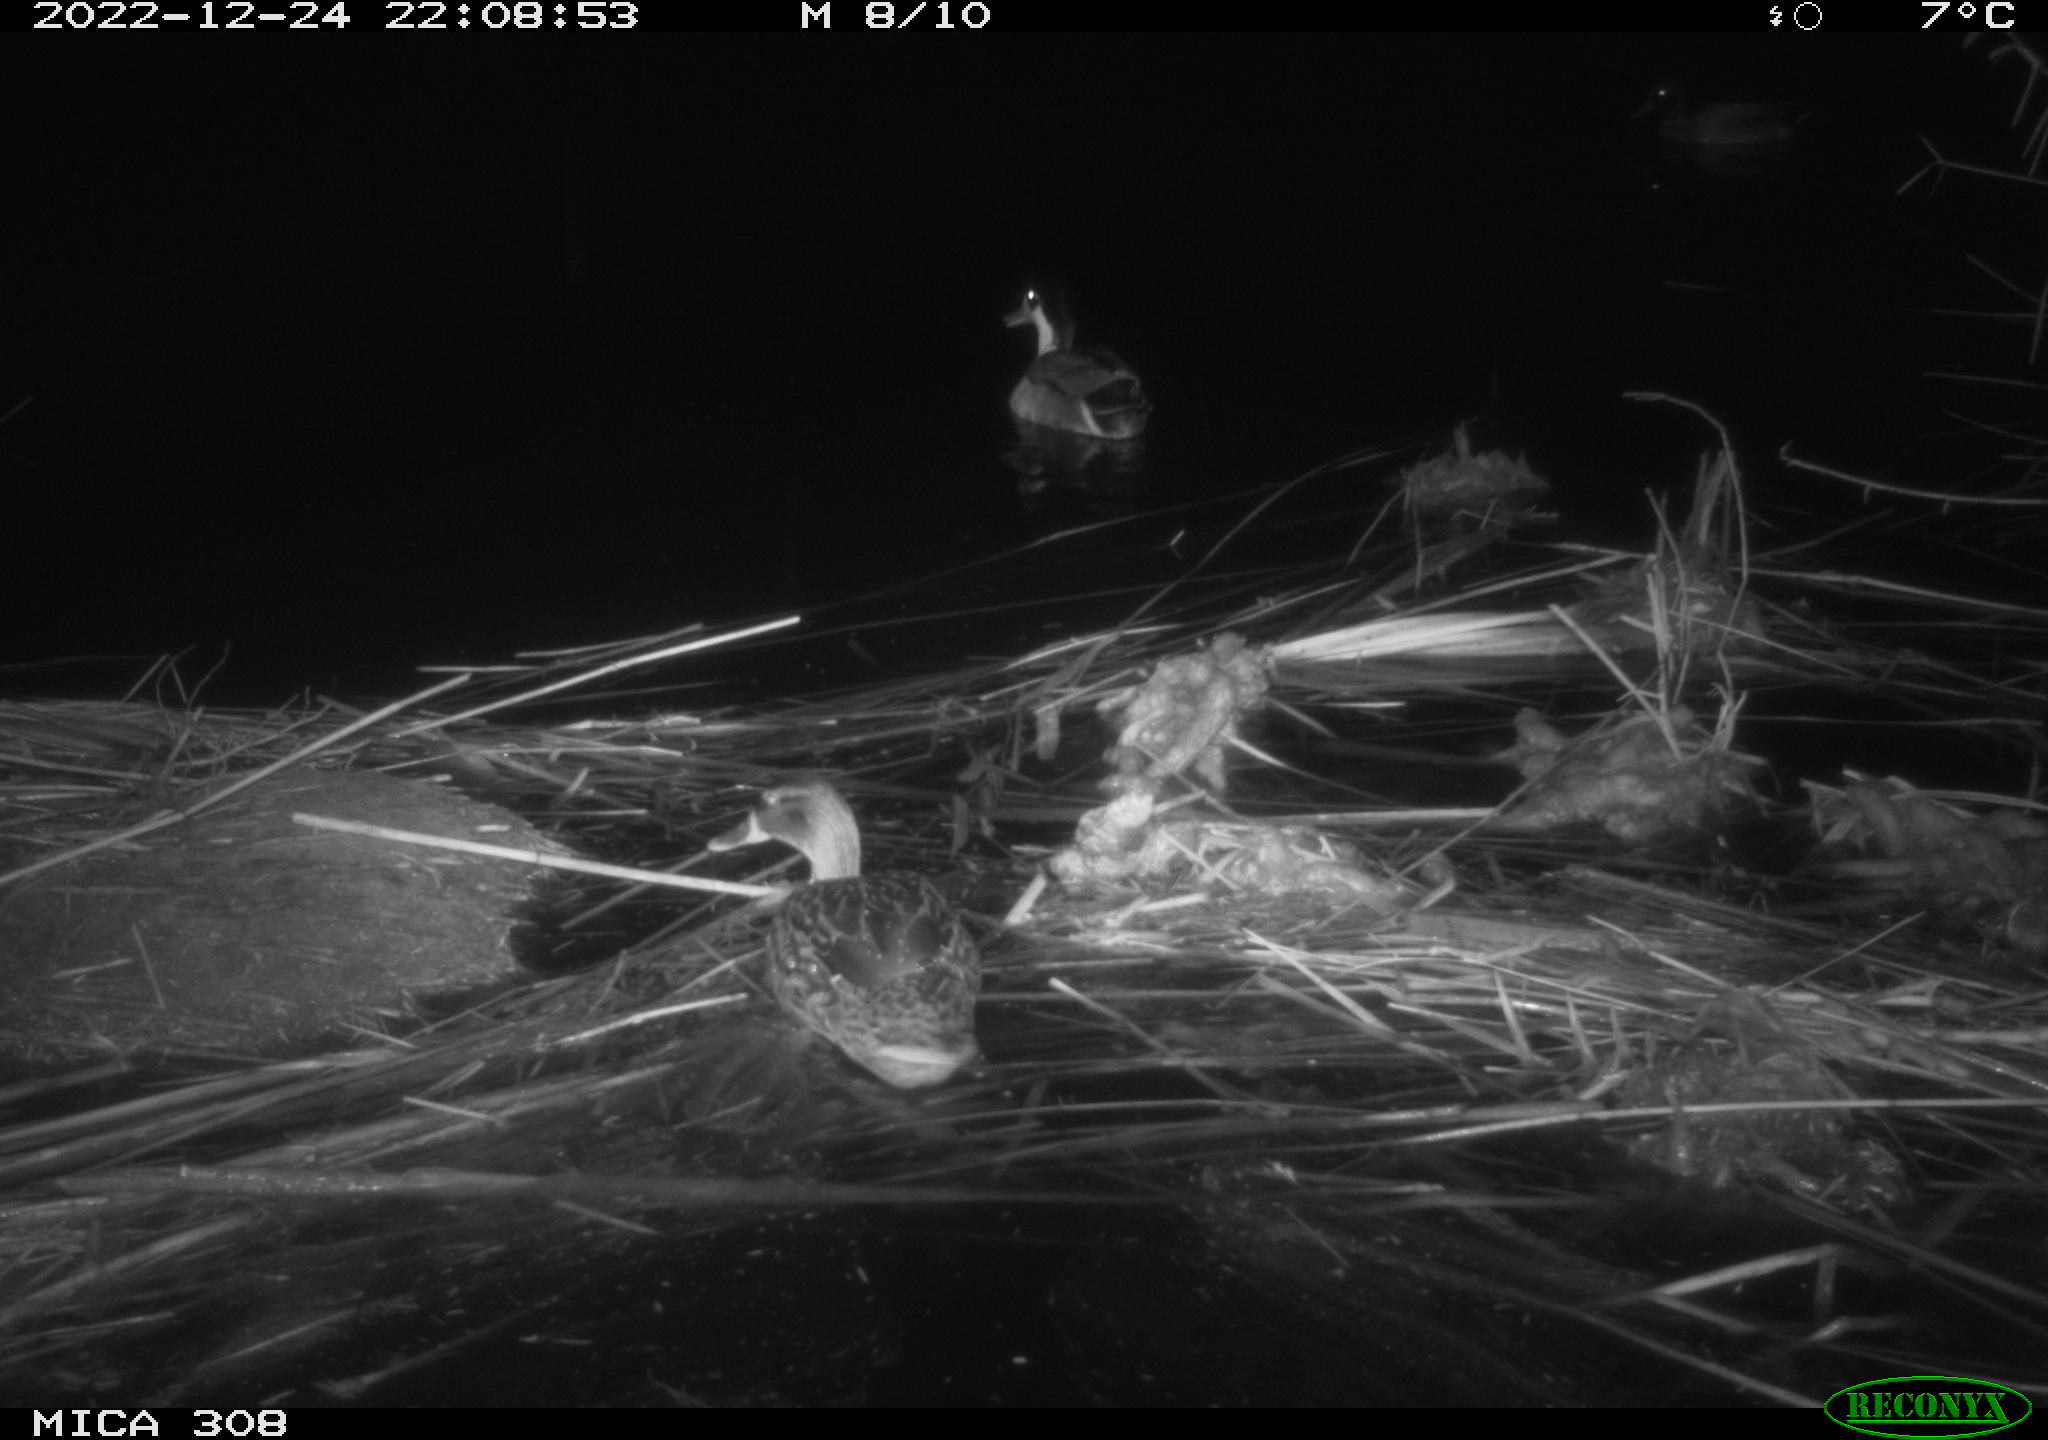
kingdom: Animalia
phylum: Chordata
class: Aves
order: Anseriformes
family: Anatidae
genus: Anas
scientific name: Anas
